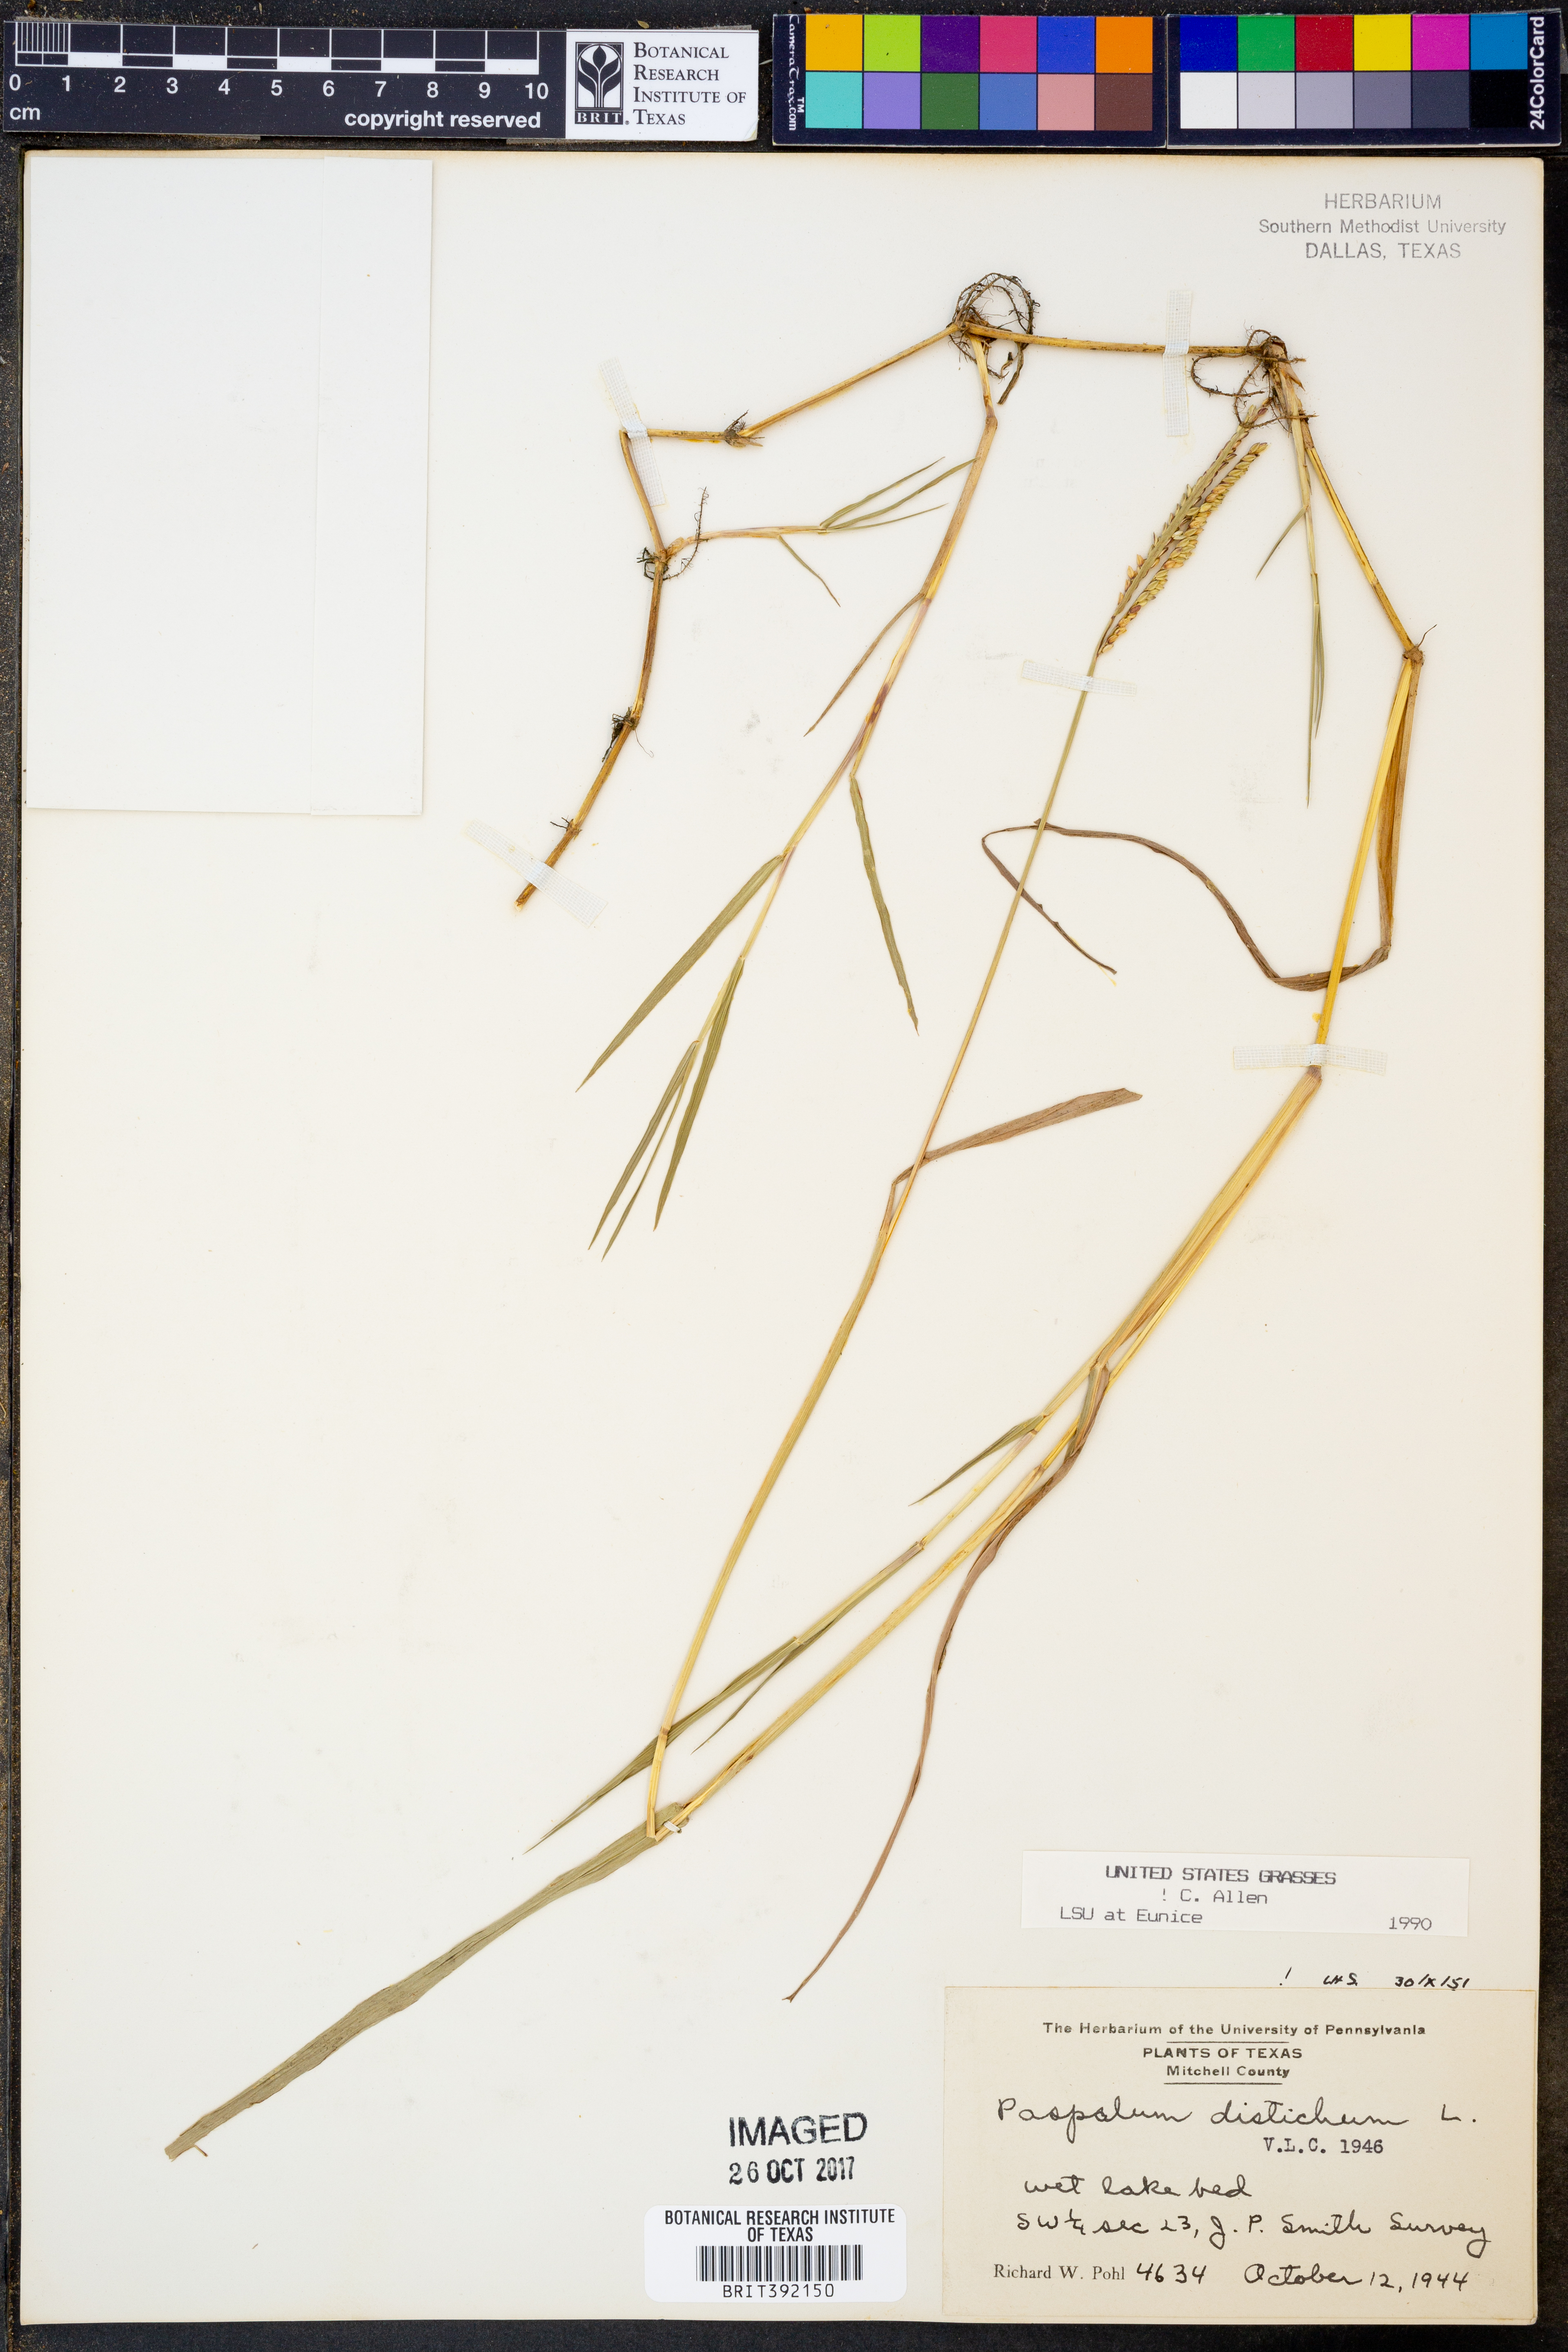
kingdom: Plantae
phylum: Tracheophyta
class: Liliopsida
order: Poales
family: Poaceae
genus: Paspalum
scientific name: Paspalum distichum
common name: Knotgrass
